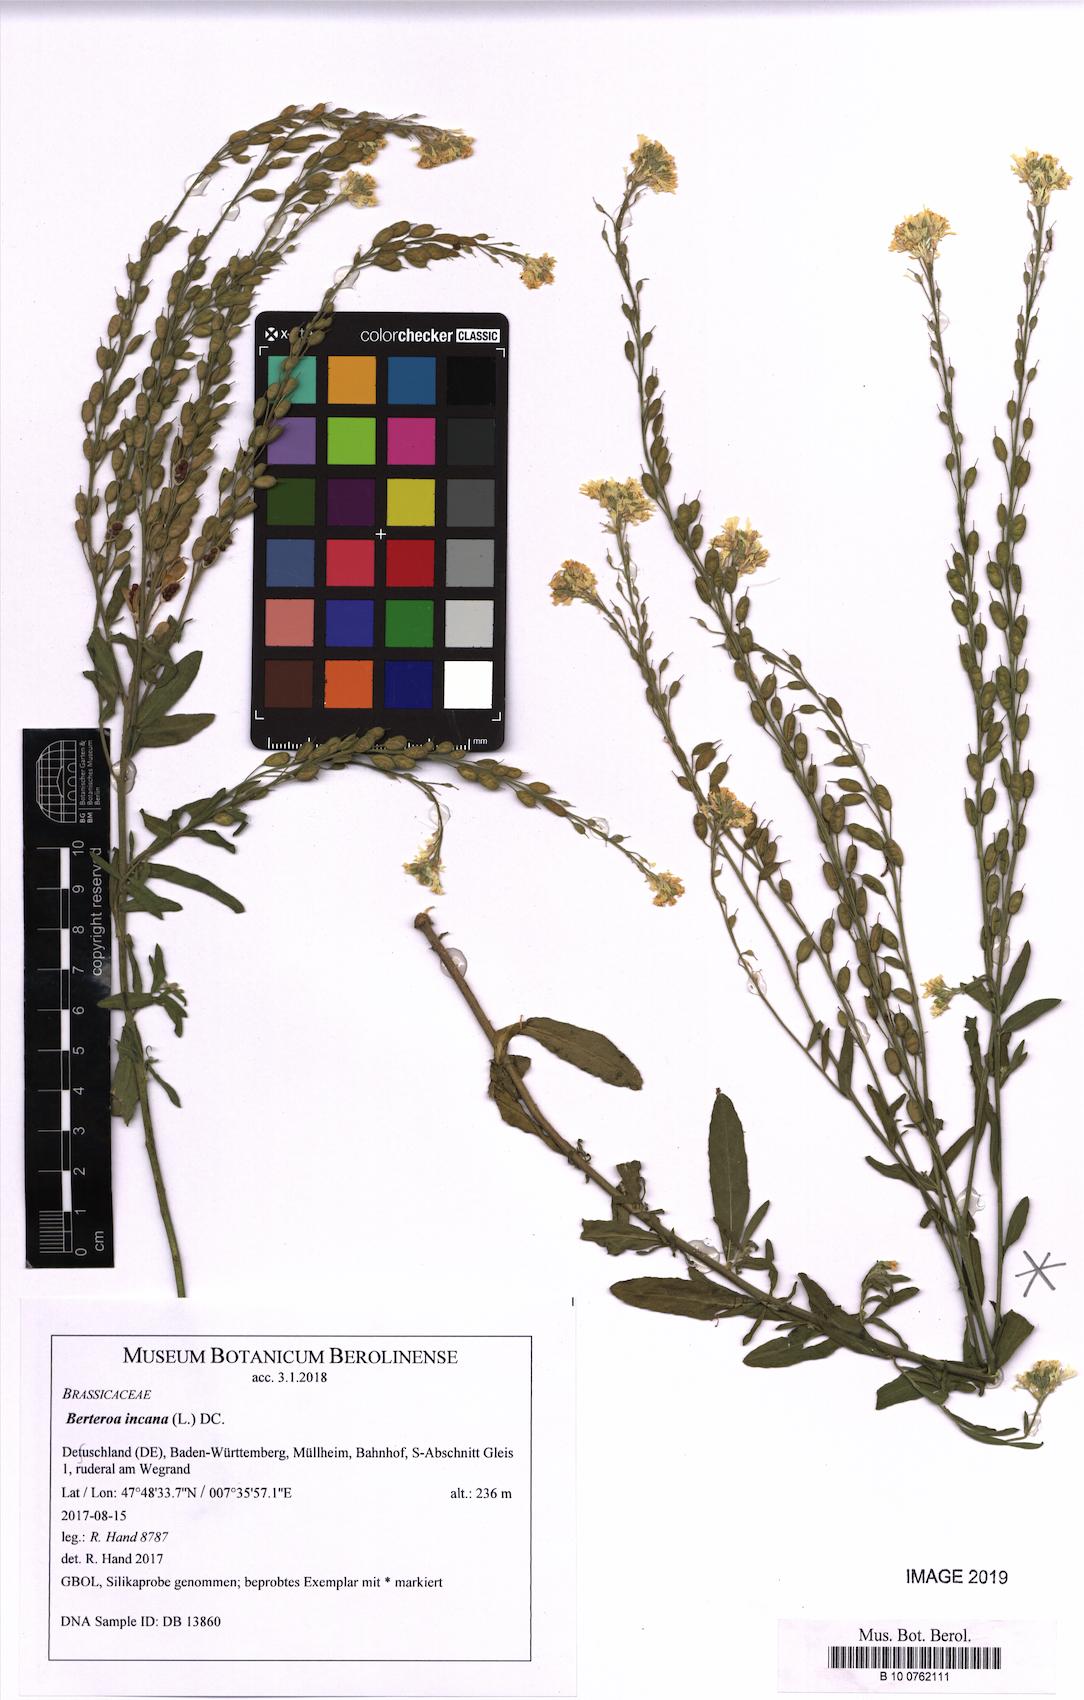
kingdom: Plantae
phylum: Tracheophyta
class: Magnoliopsida
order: Brassicales
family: Brassicaceae
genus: Berteroa
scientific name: Berteroa incana
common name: Hoary alison
